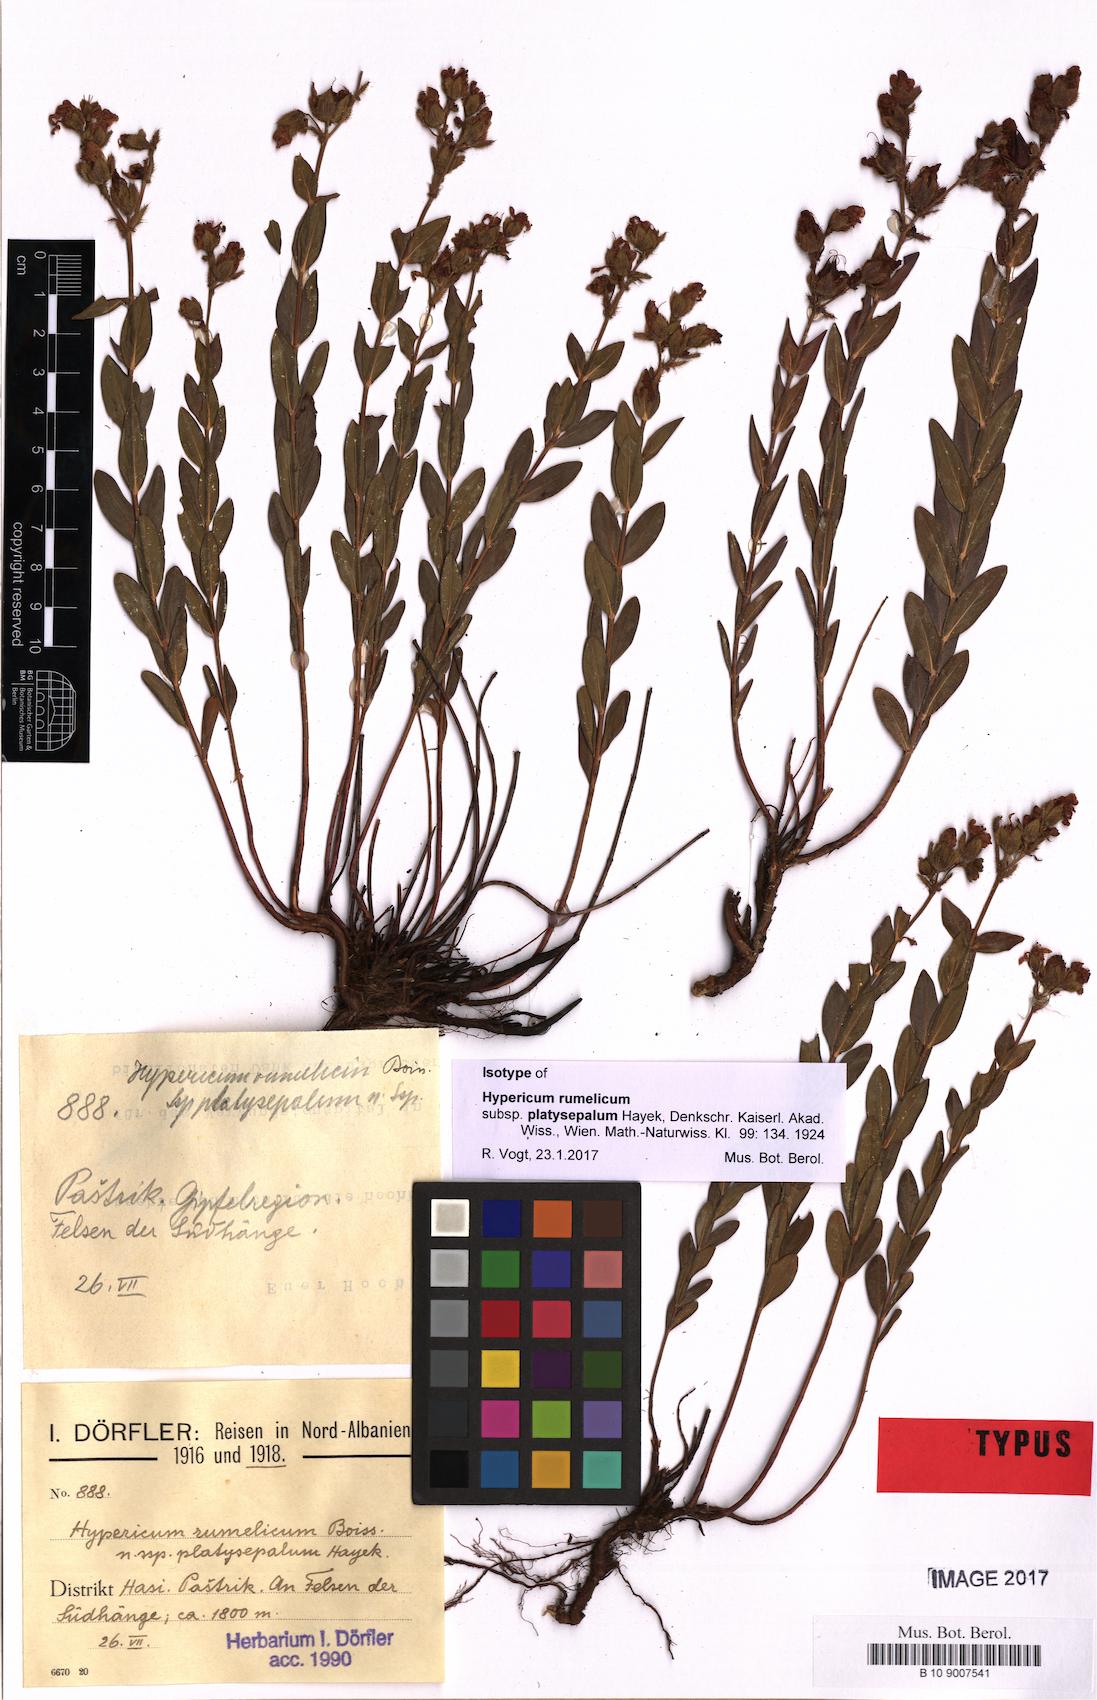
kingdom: Plantae
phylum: Tracheophyta
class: Magnoliopsida
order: Malpighiales
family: Hypericaceae
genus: Hypericum
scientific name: Hypericum rumeliacum
